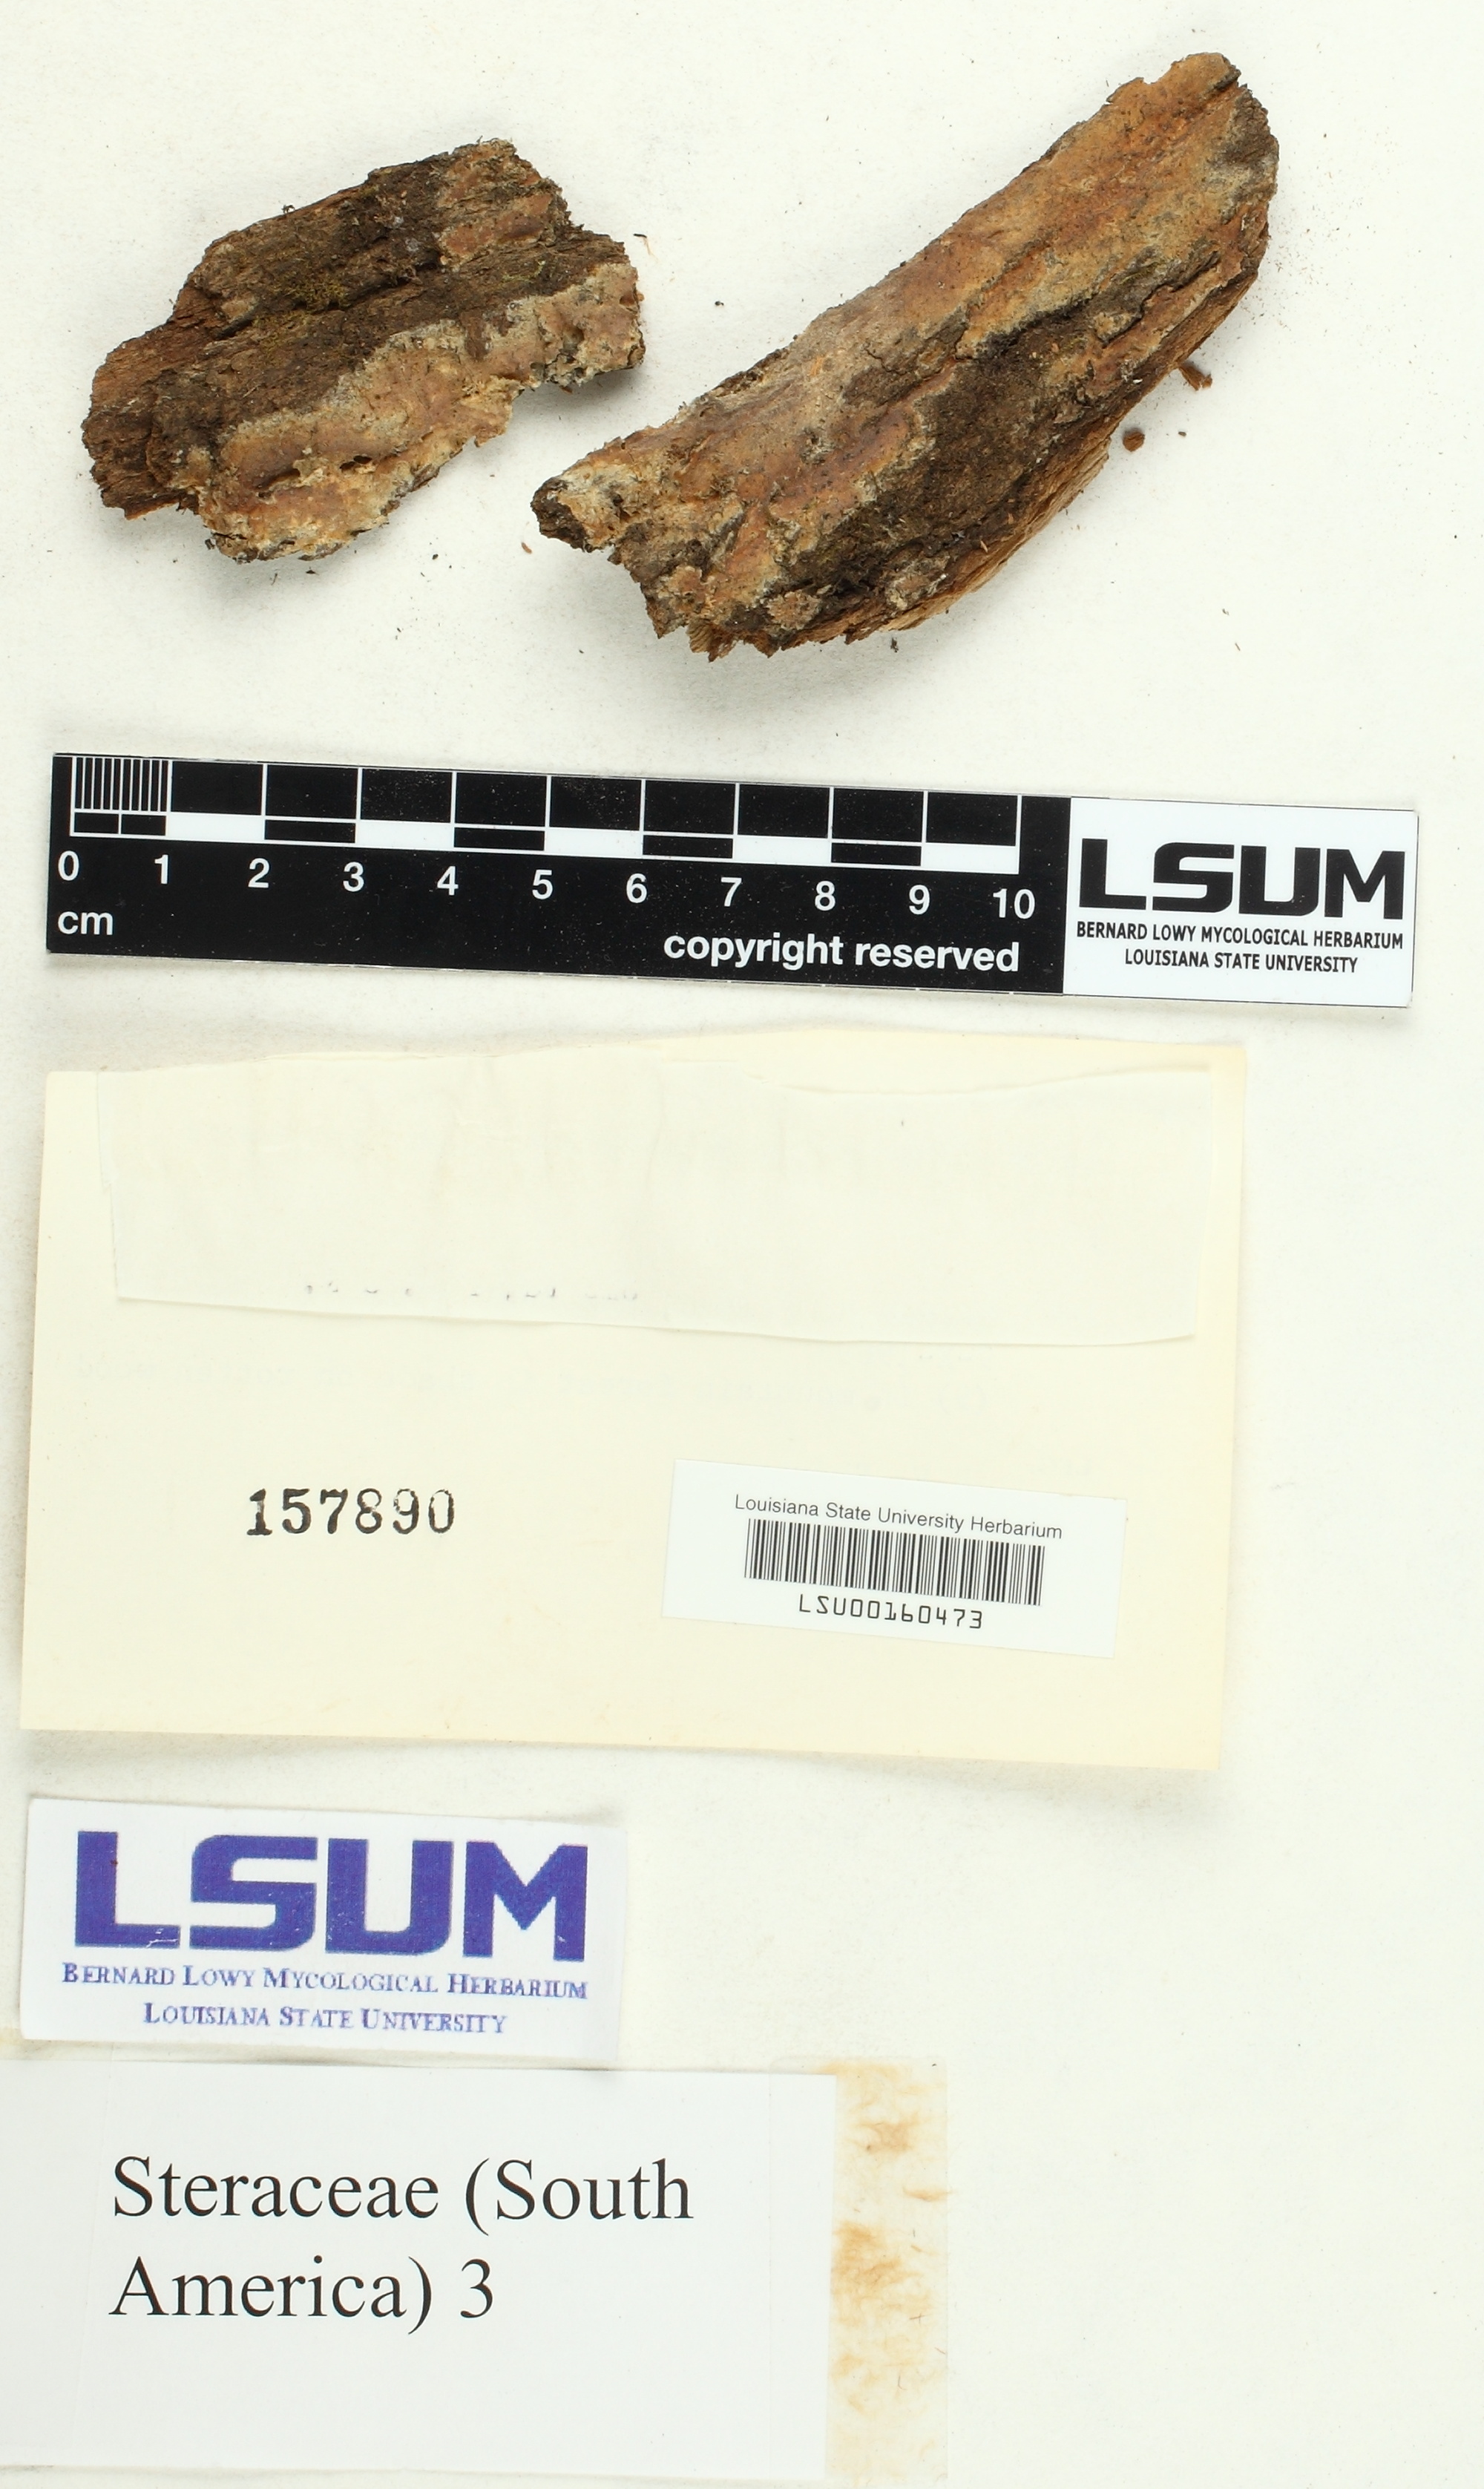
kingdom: Fungi
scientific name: Fungi
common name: Fungi
